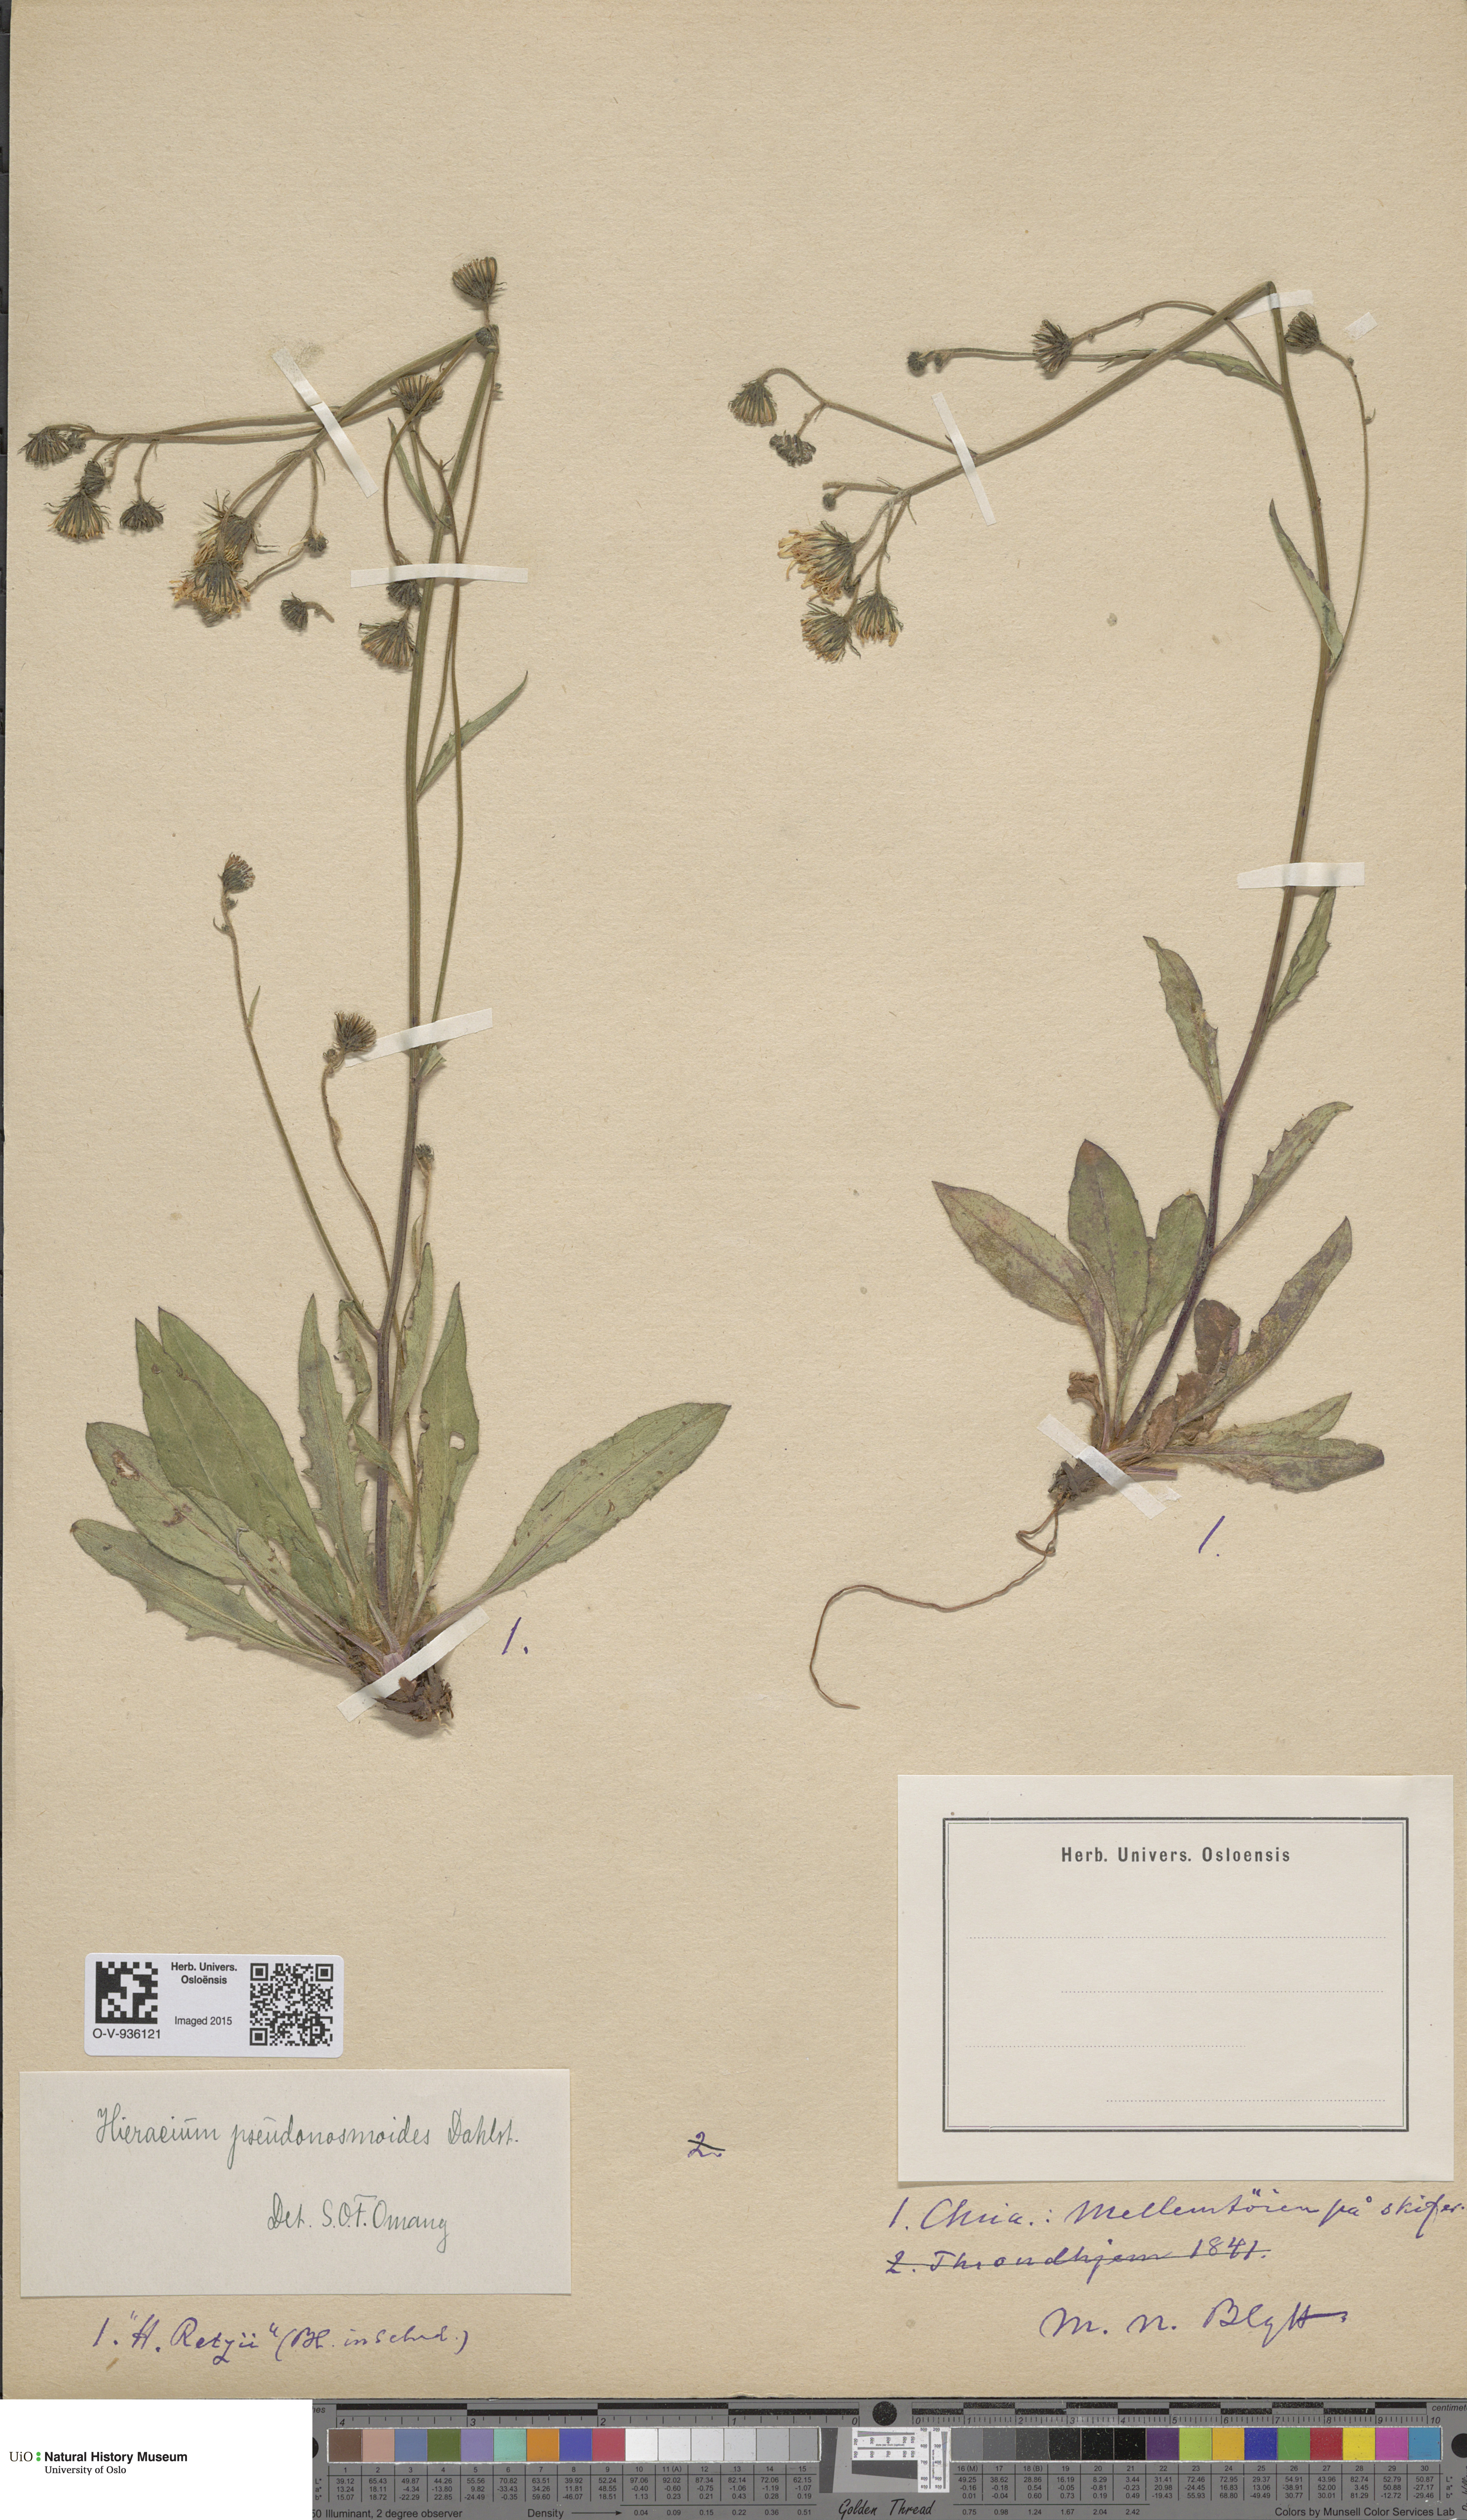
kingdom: Plantae
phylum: Tracheophyta
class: Magnoliopsida
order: Asterales
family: Asteraceae
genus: Hieracium
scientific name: Hieracium saxifragum
